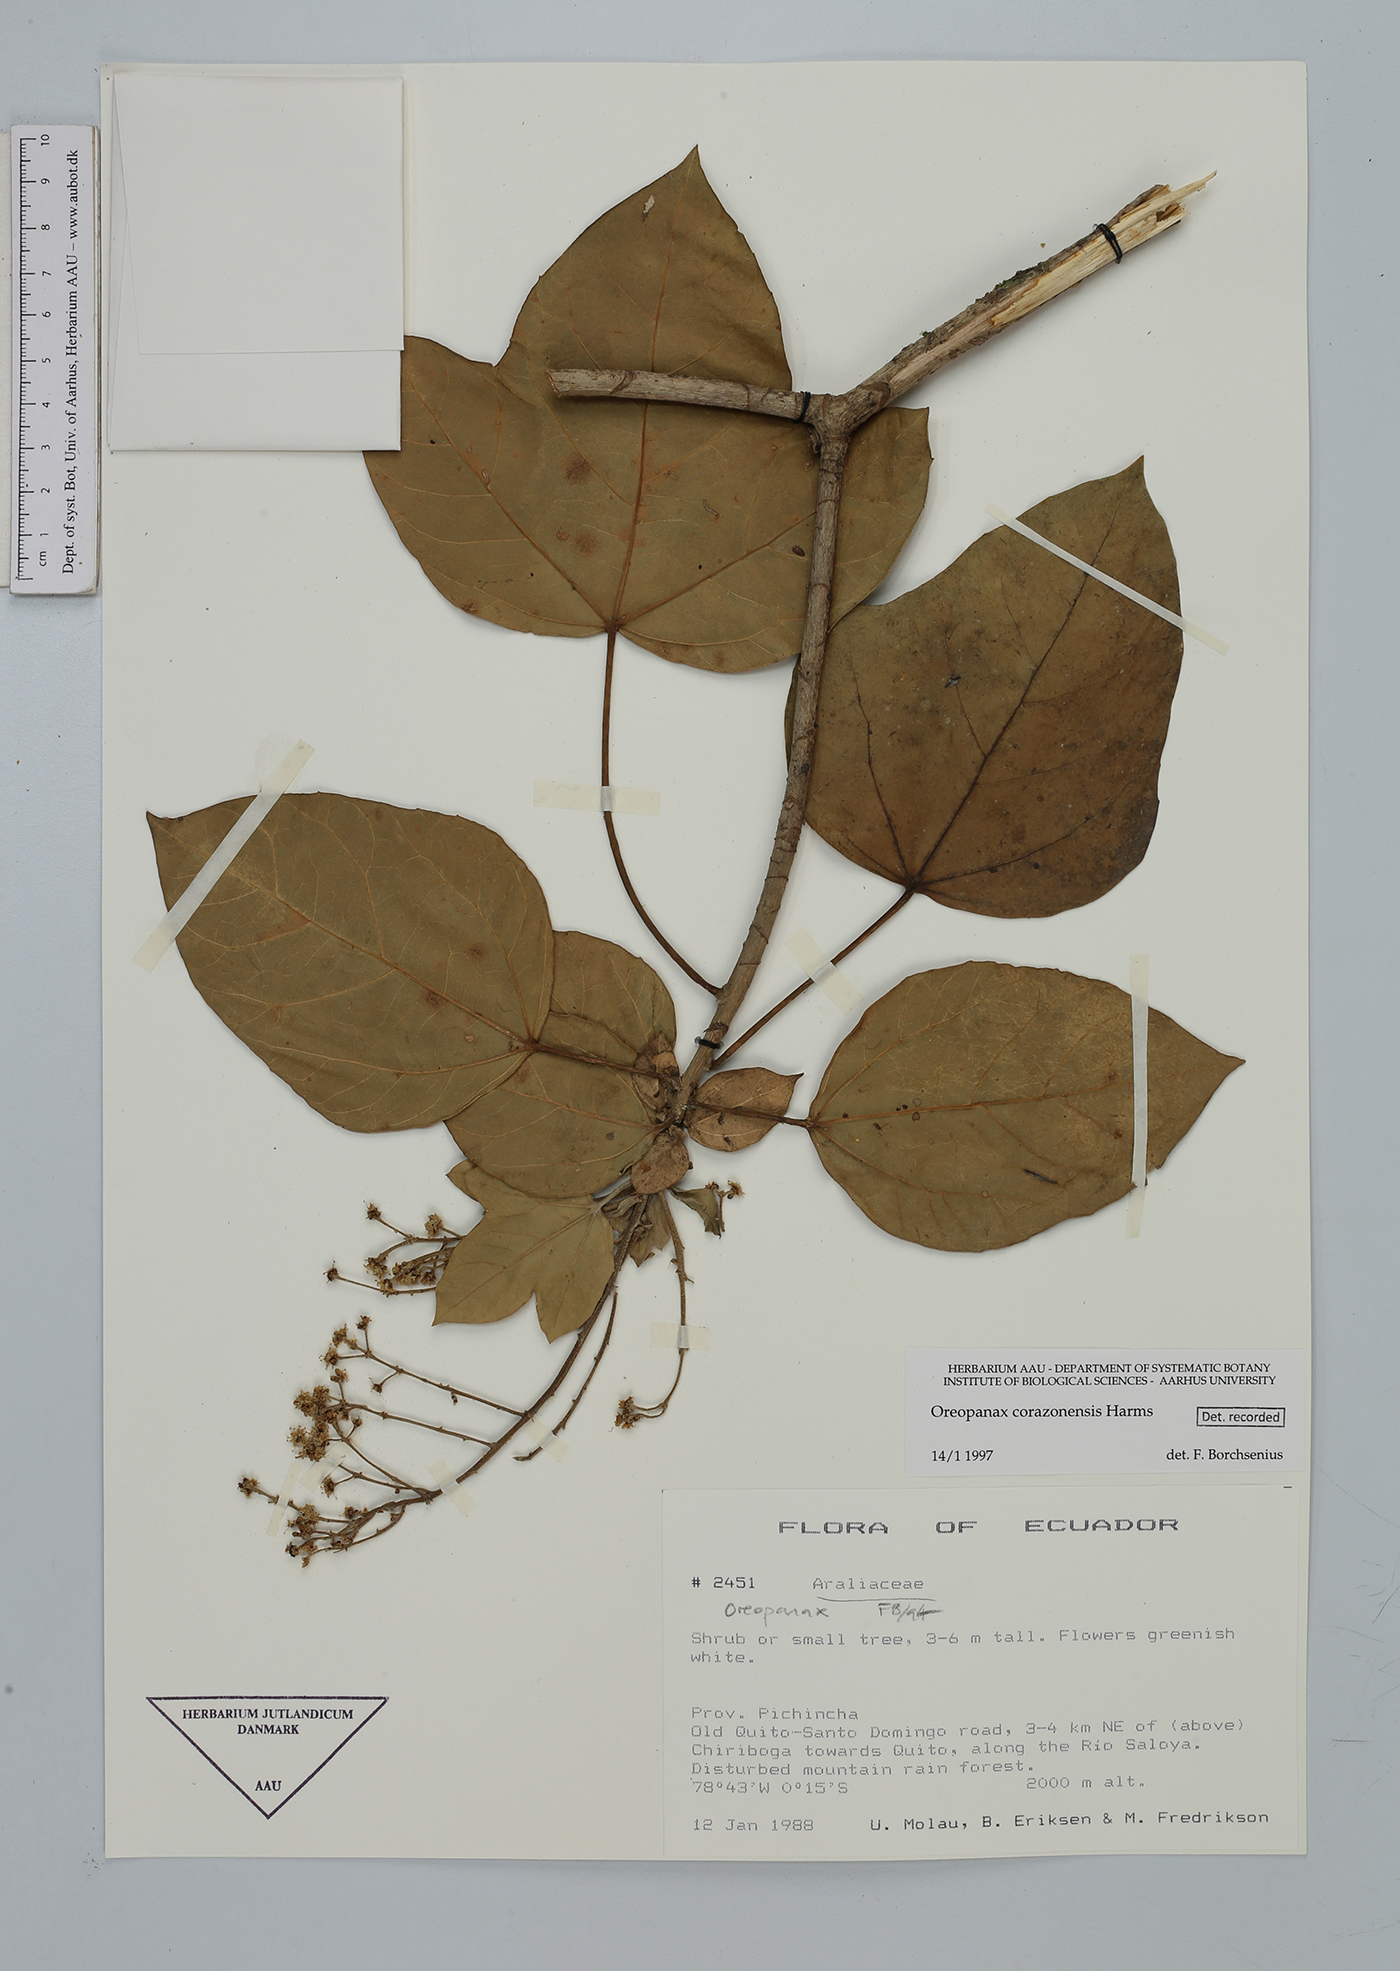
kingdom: Plantae
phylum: Tracheophyta
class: Magnoliopsida
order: Apiales
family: Araliaceae
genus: Oreopanax
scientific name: Oreopanax corazonensis
